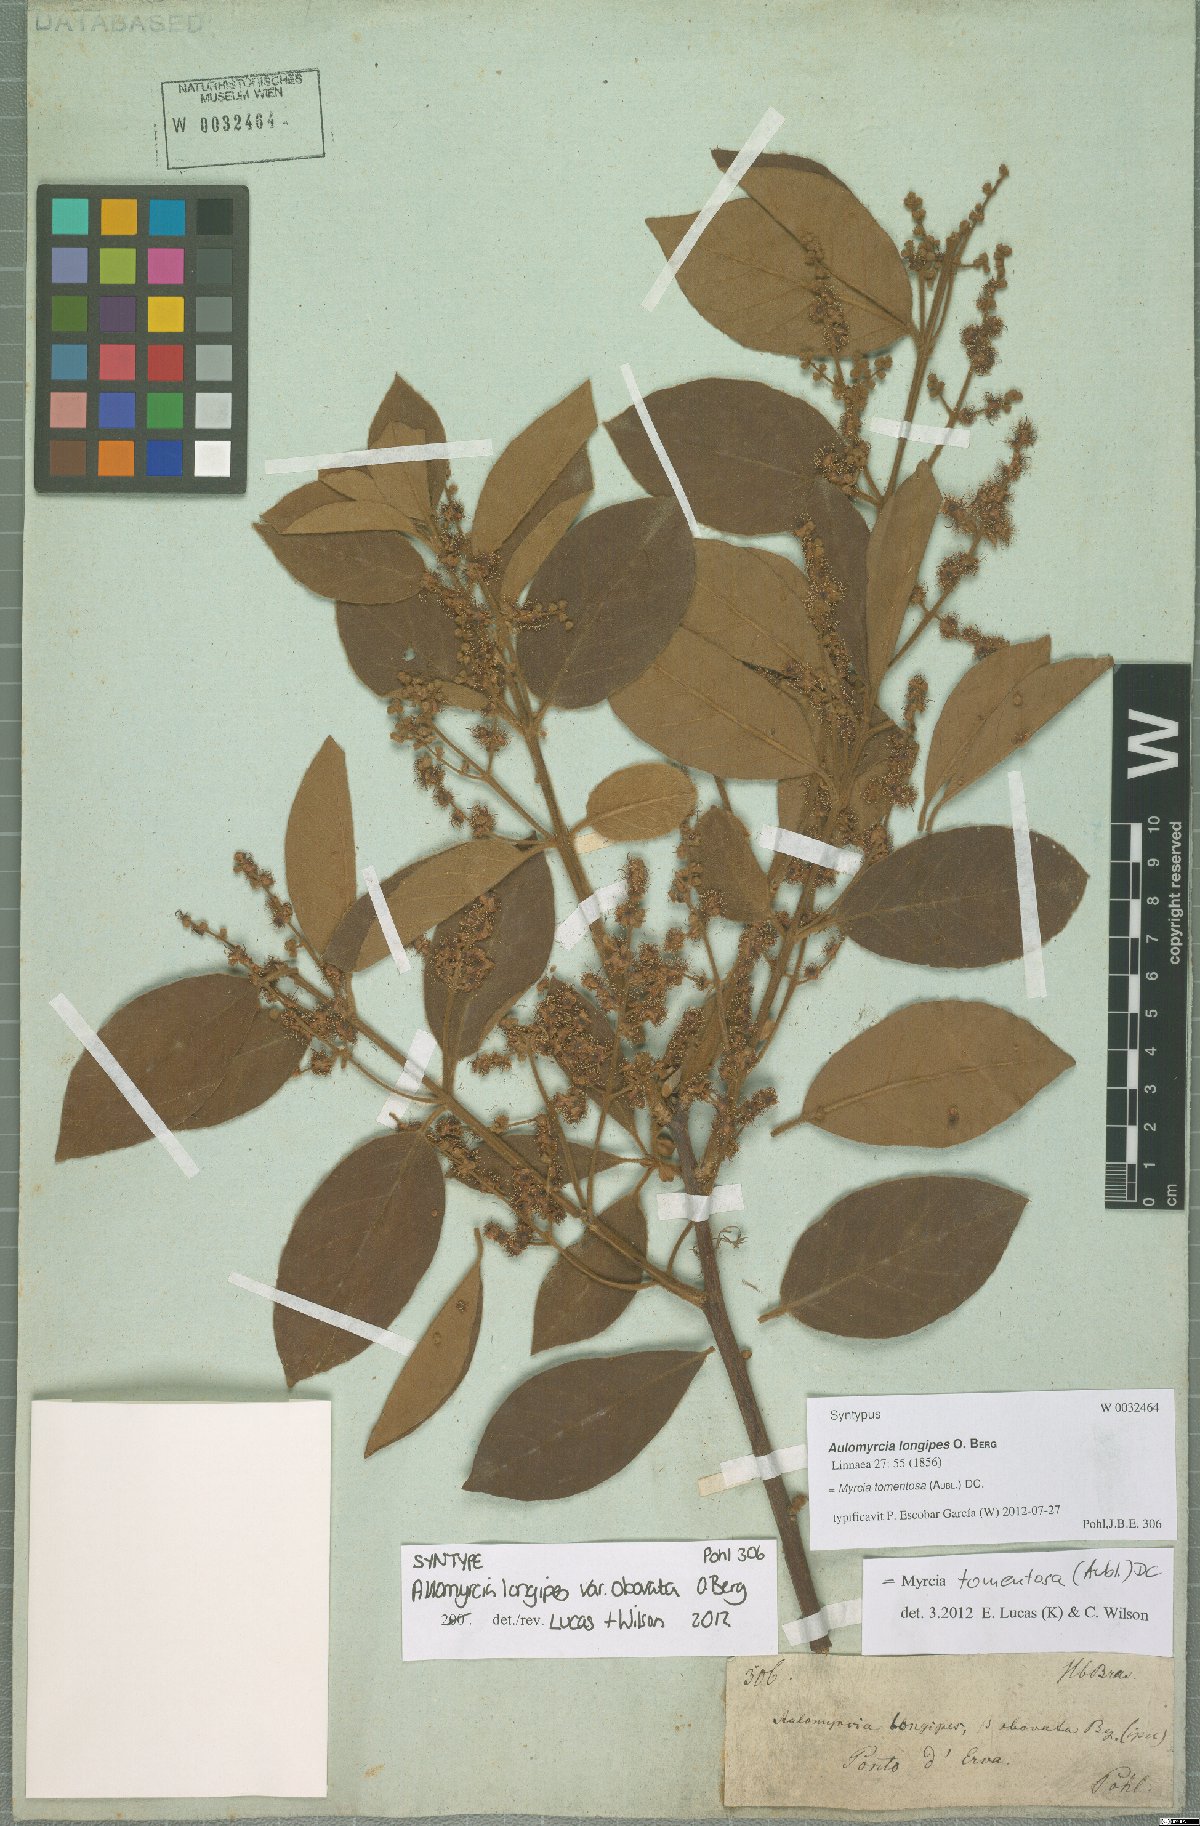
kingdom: Plantae
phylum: Tracheophyta
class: Magnoliopsida
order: Myrtales
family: Myrtaceae
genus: Myrcia
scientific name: Myrcia tomentosa
